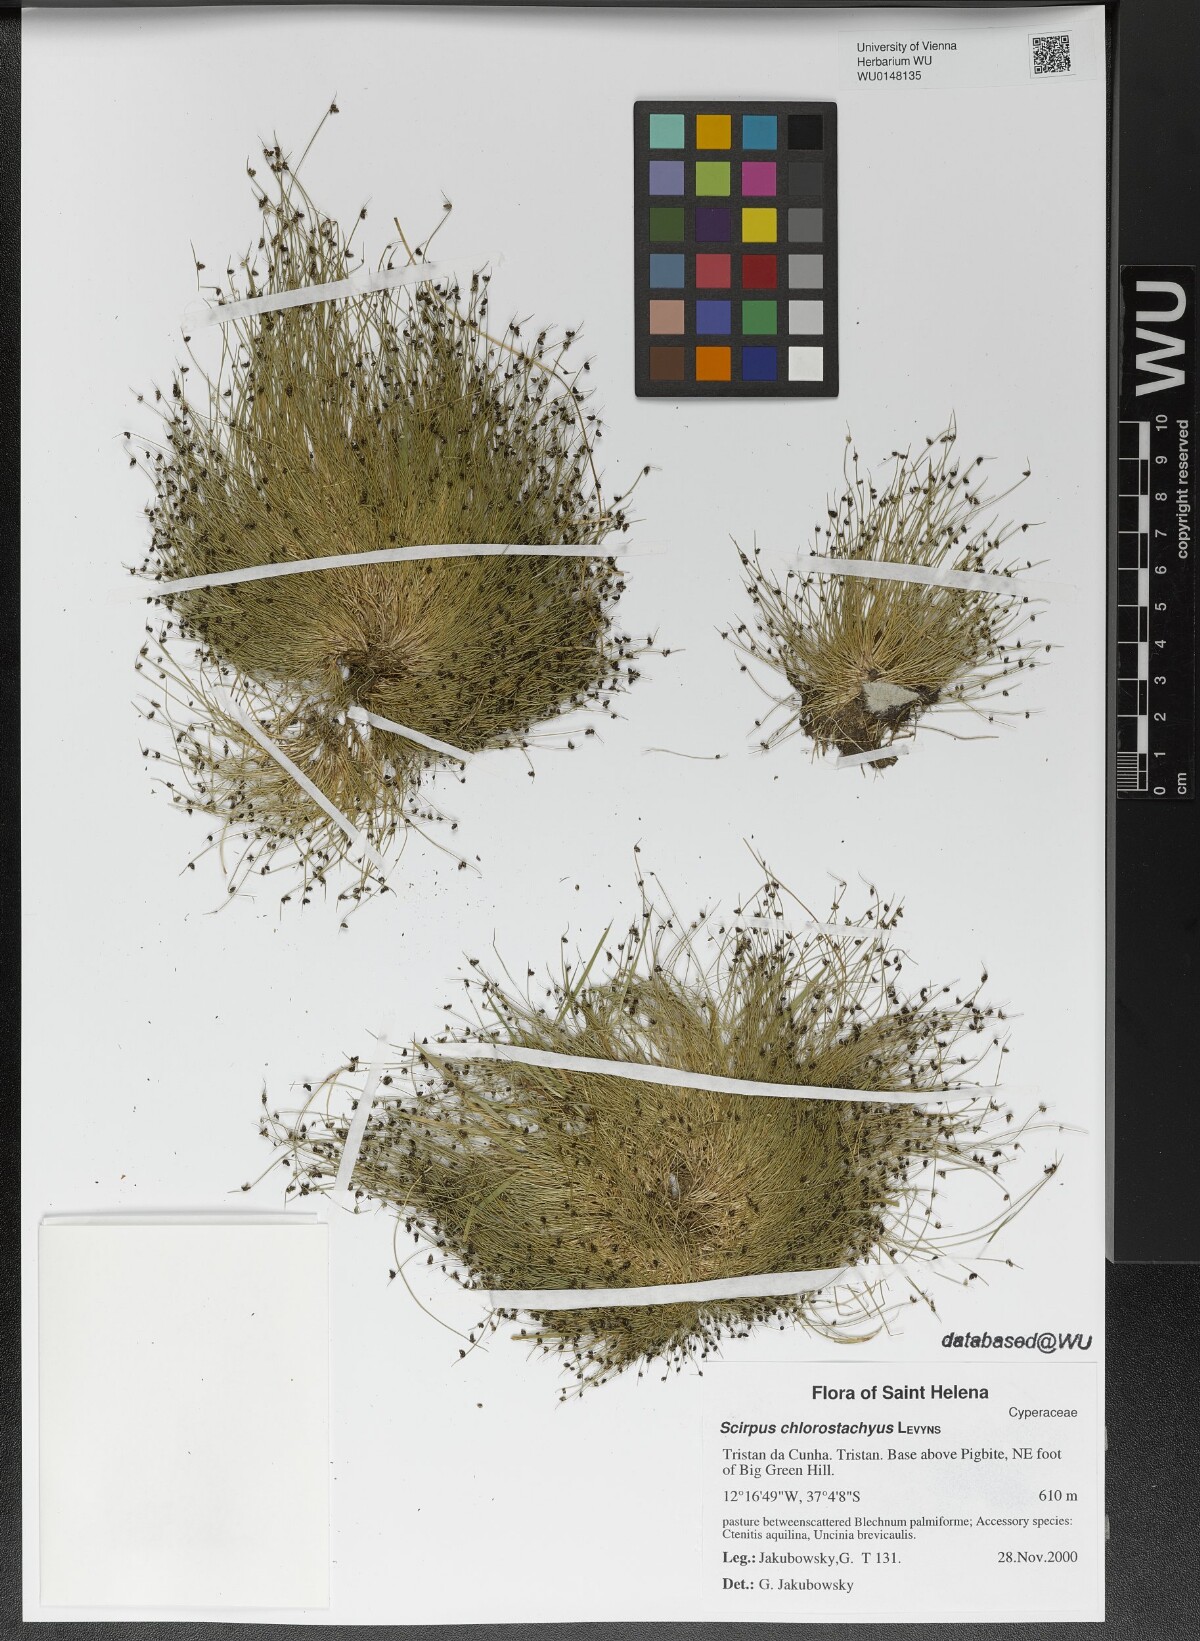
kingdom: Plantae
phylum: Tracheophyta
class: Liliopsida
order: Poales
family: Cyperaceae
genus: Isolepis
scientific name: Isolepis tenuissima
